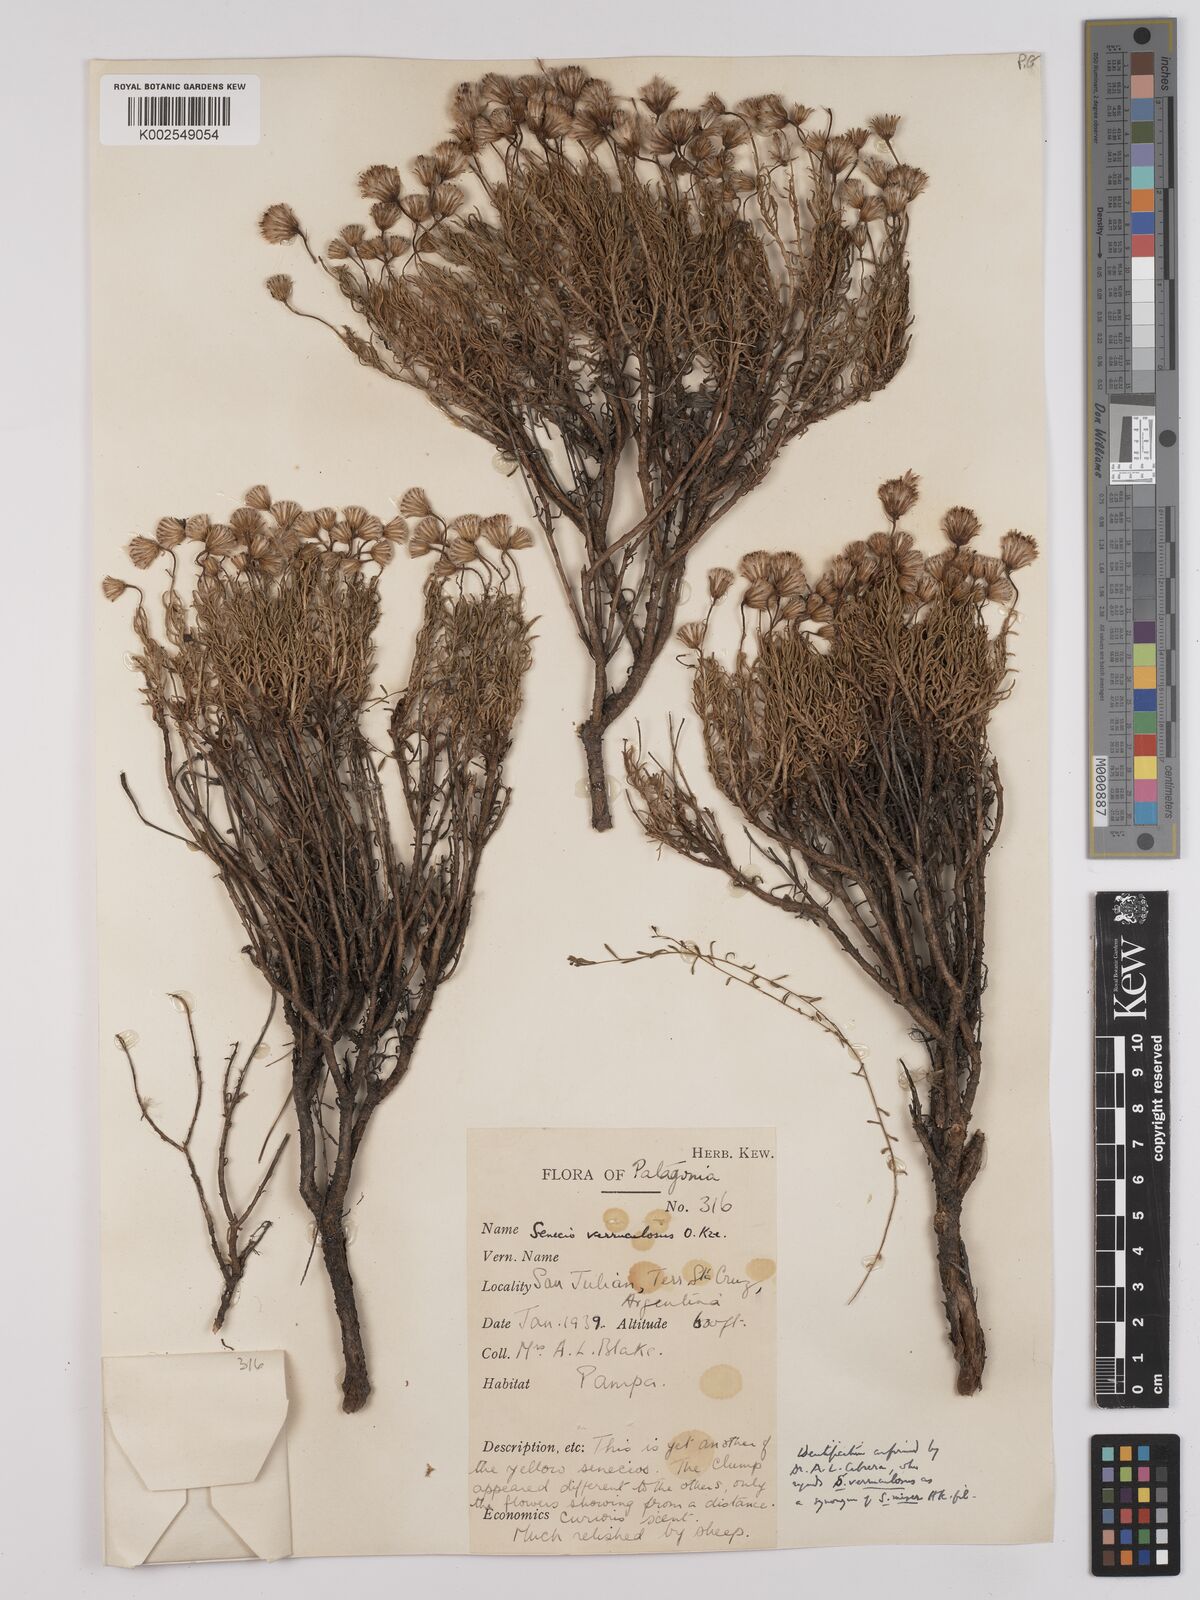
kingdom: Plantae
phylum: Tracheophyta
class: Magnoliopsida
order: Asterales
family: Asteraceae
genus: Senecio
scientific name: Senecio miser
